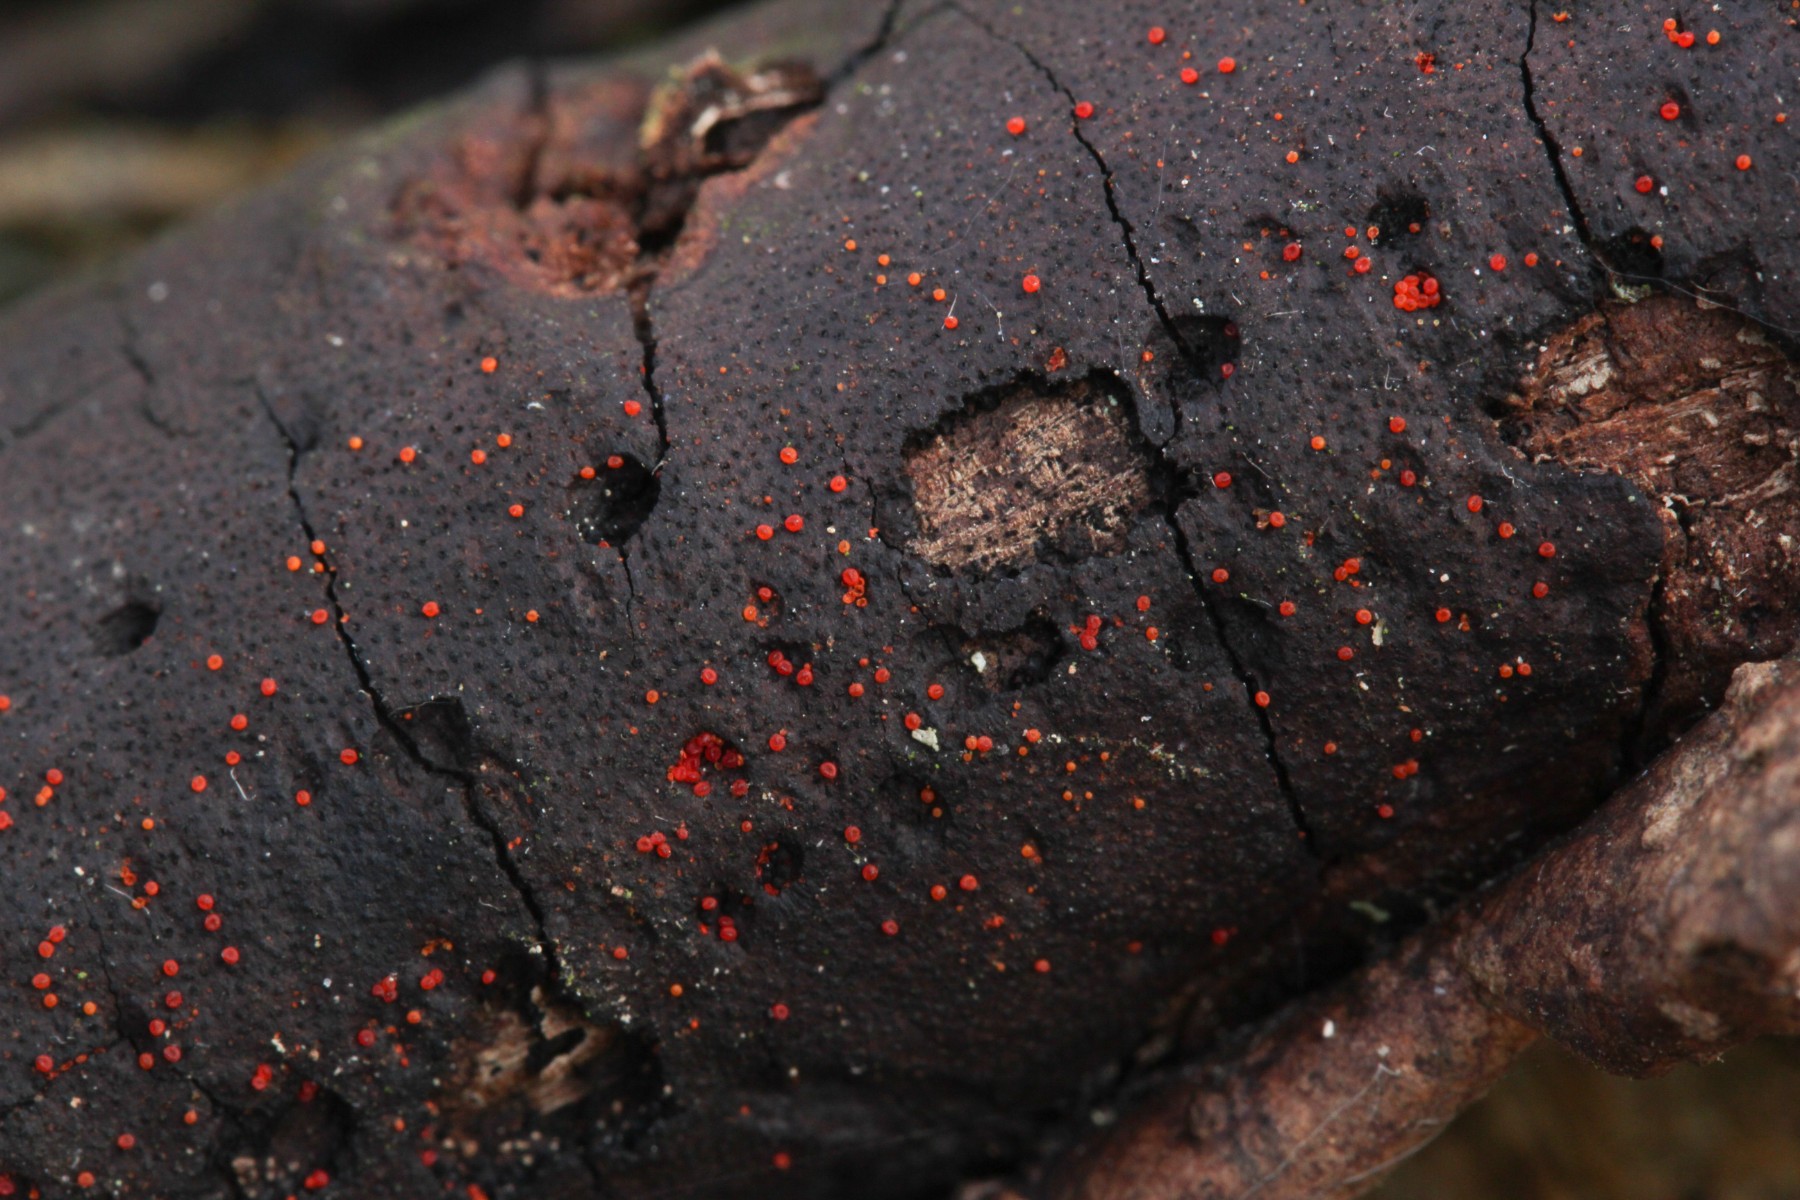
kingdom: Fungi
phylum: Ascomycota
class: Sordariomycetes
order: Hypocreales
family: Nectriaceae
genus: Dialonectria
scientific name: Dialonectria episphaeria
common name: kulskorpe-cinnobersvamp
